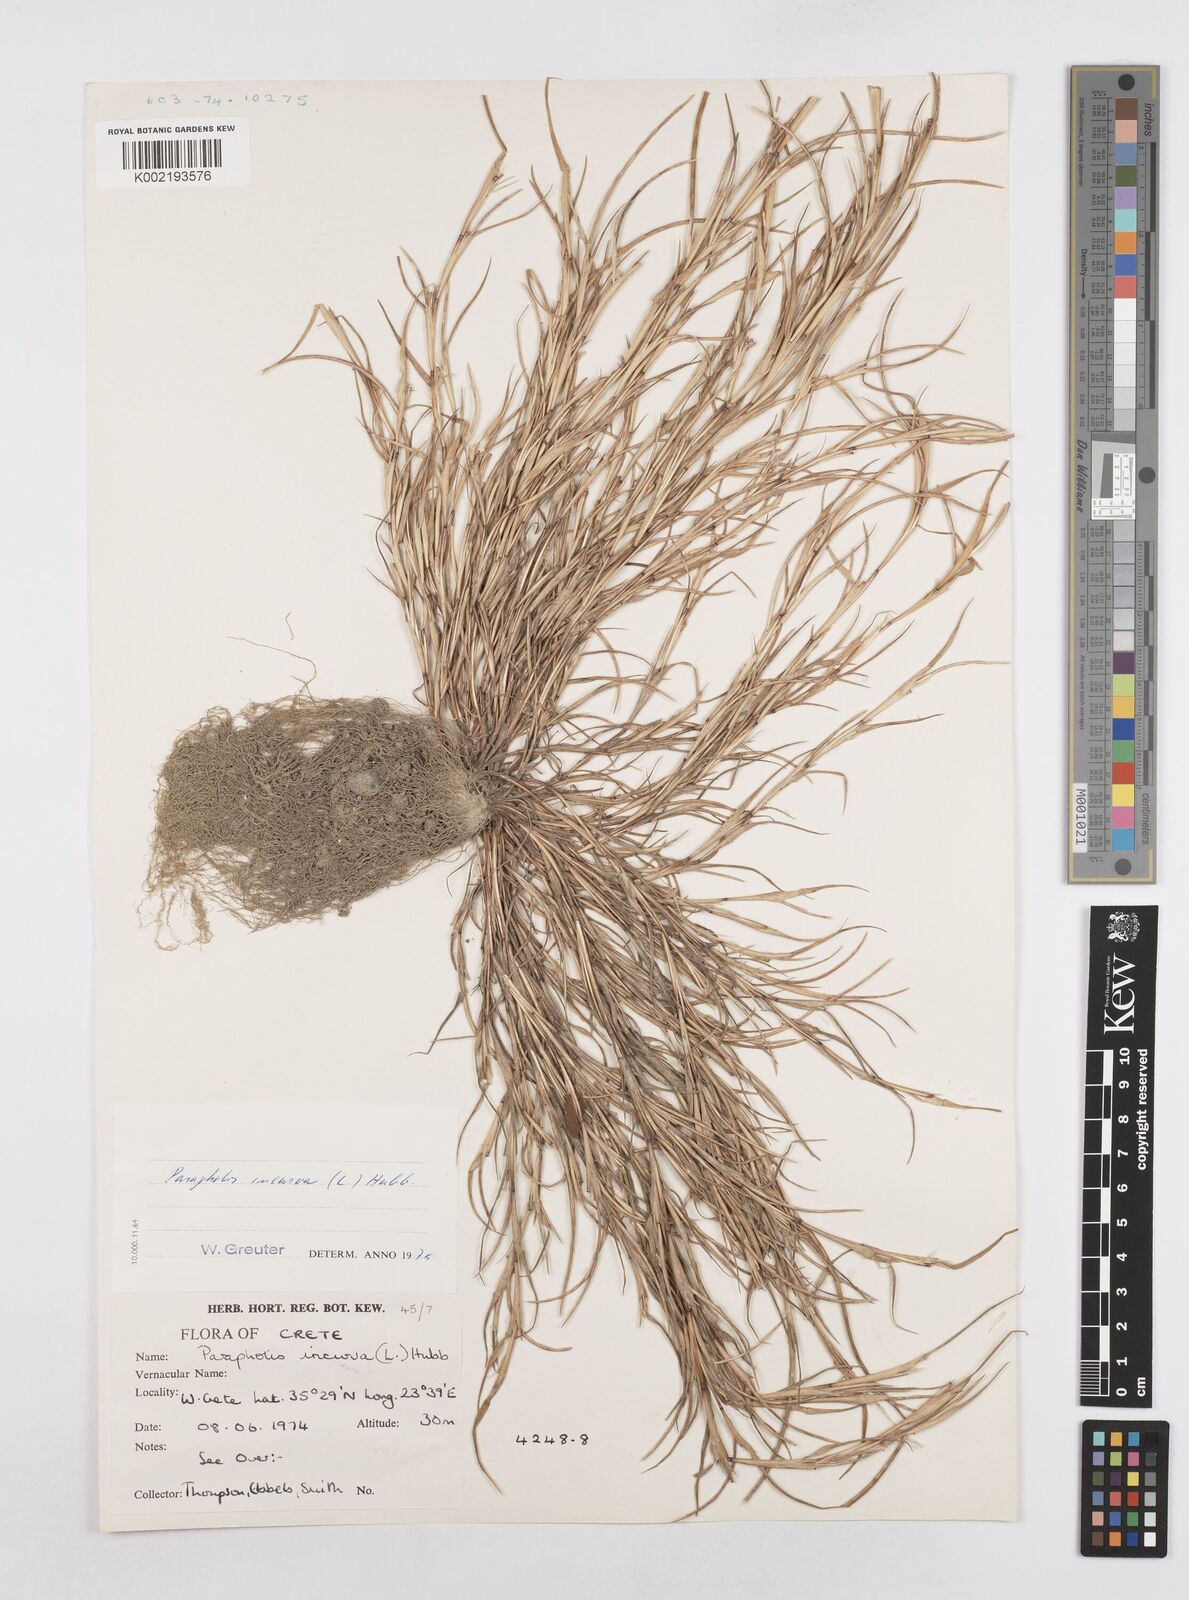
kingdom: Plantae
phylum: Tracheophyta
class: Liliopsida
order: Poales
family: Poaceae
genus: Parapholis
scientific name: Parapholis incurva
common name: Curved sicklegrass
